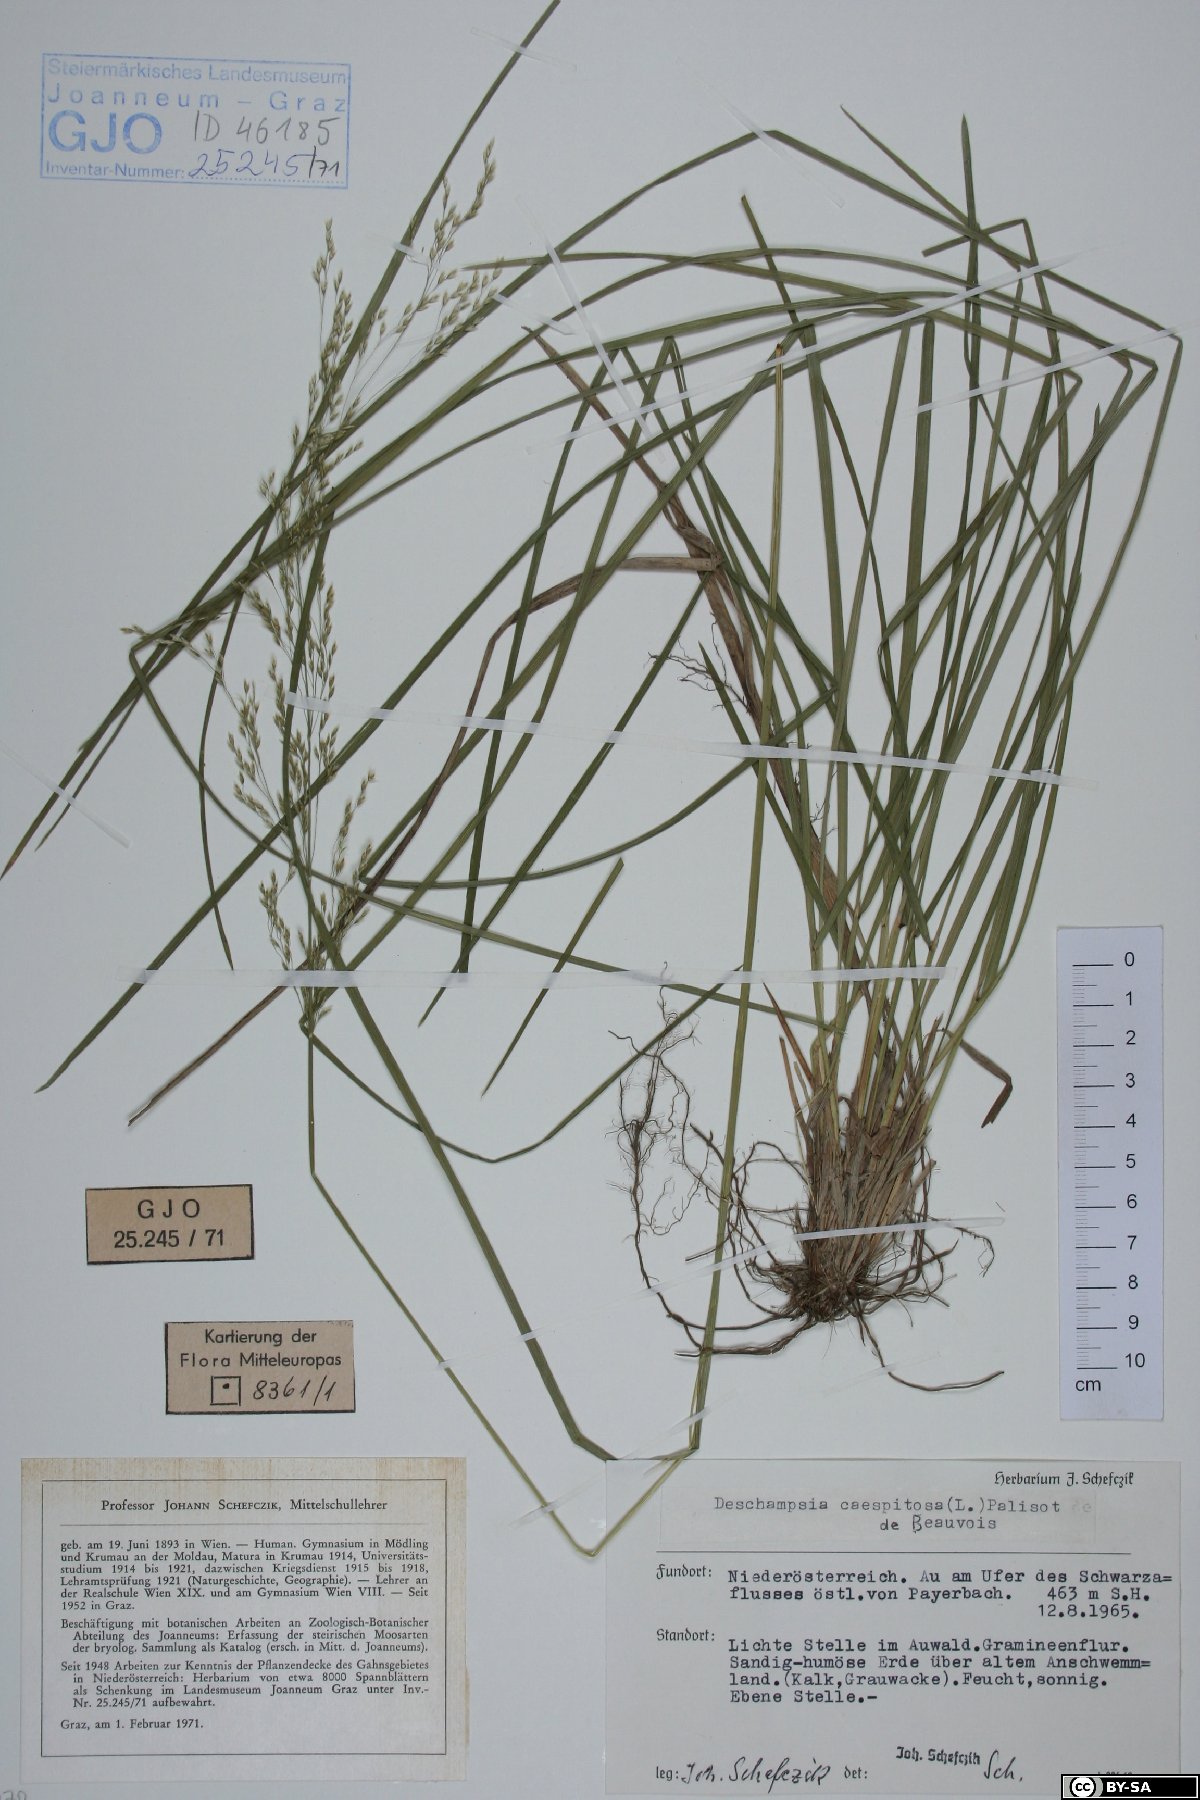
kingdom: Plantae
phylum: Tracheophyta
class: Liliopsida
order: Poales
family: Poaceae
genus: Deschampsia
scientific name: Deschampsia cespitosa
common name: Tufted hair-grass
